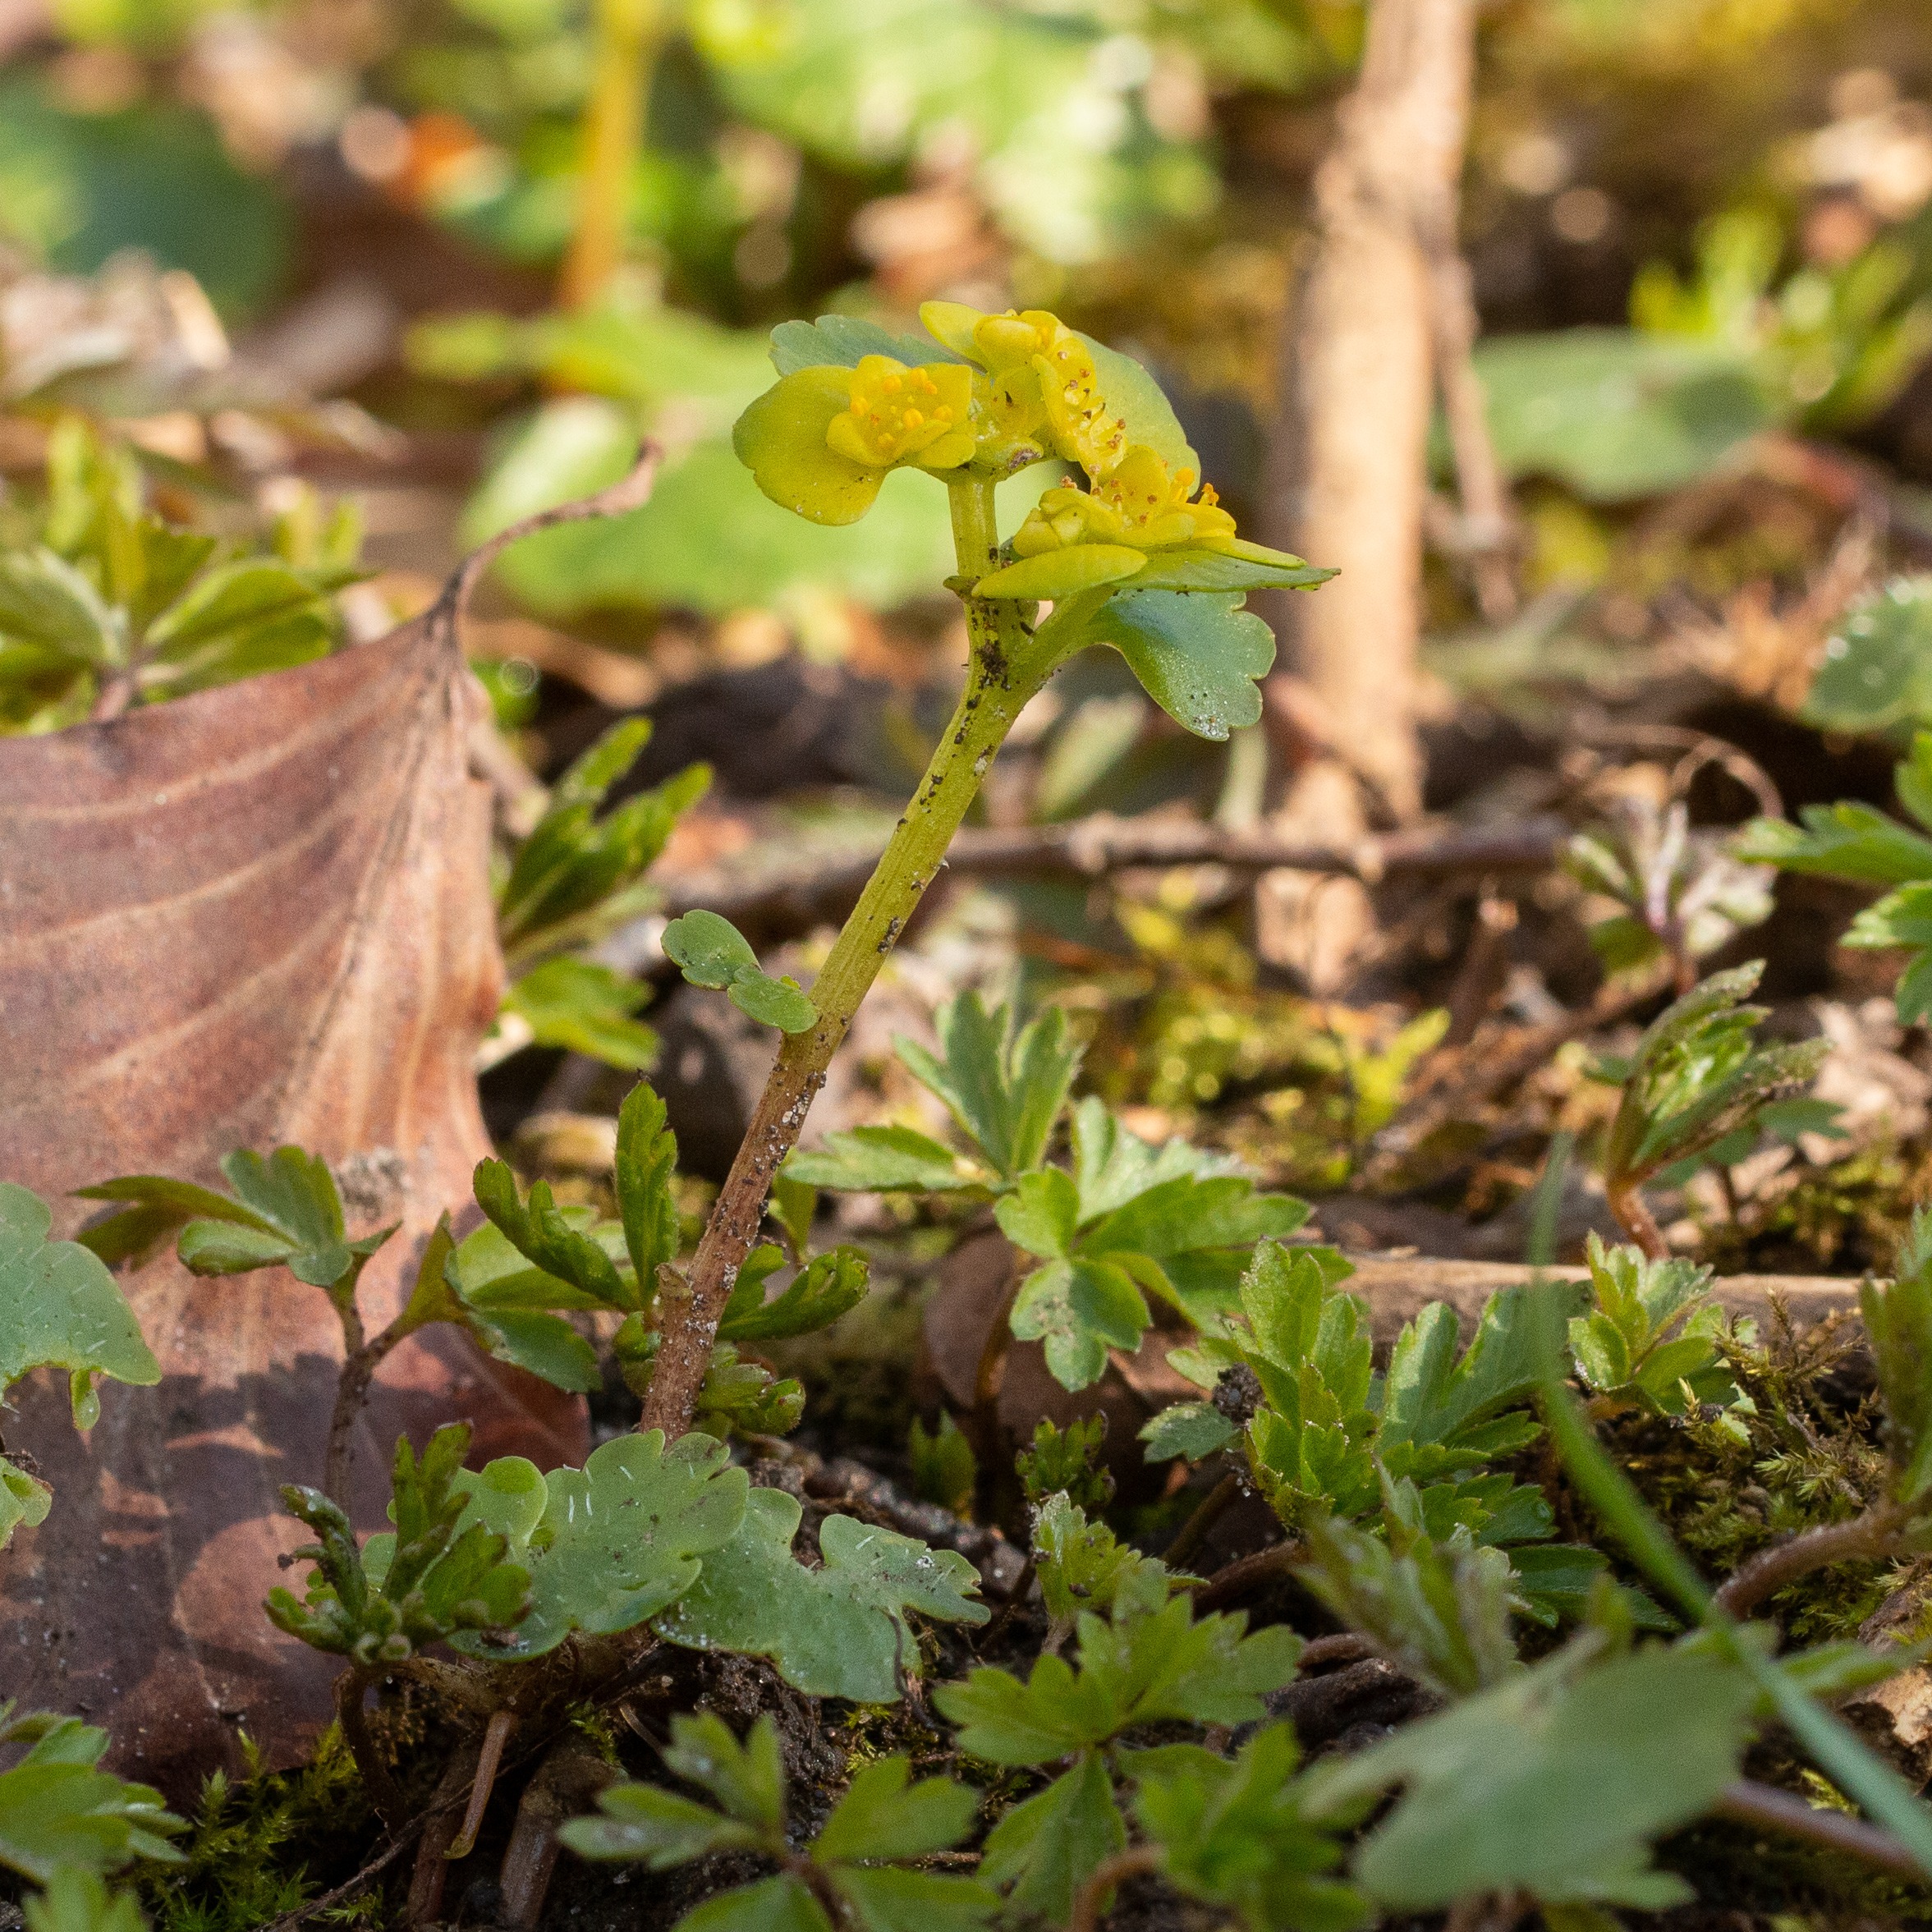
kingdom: Plantae
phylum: Tracheophyta
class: Magnoliopsida
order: Saxifragales
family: Saxifragaceae
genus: Chrysosplenium
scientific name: Chrysosplenium alternifolium
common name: Almindelig milturt
